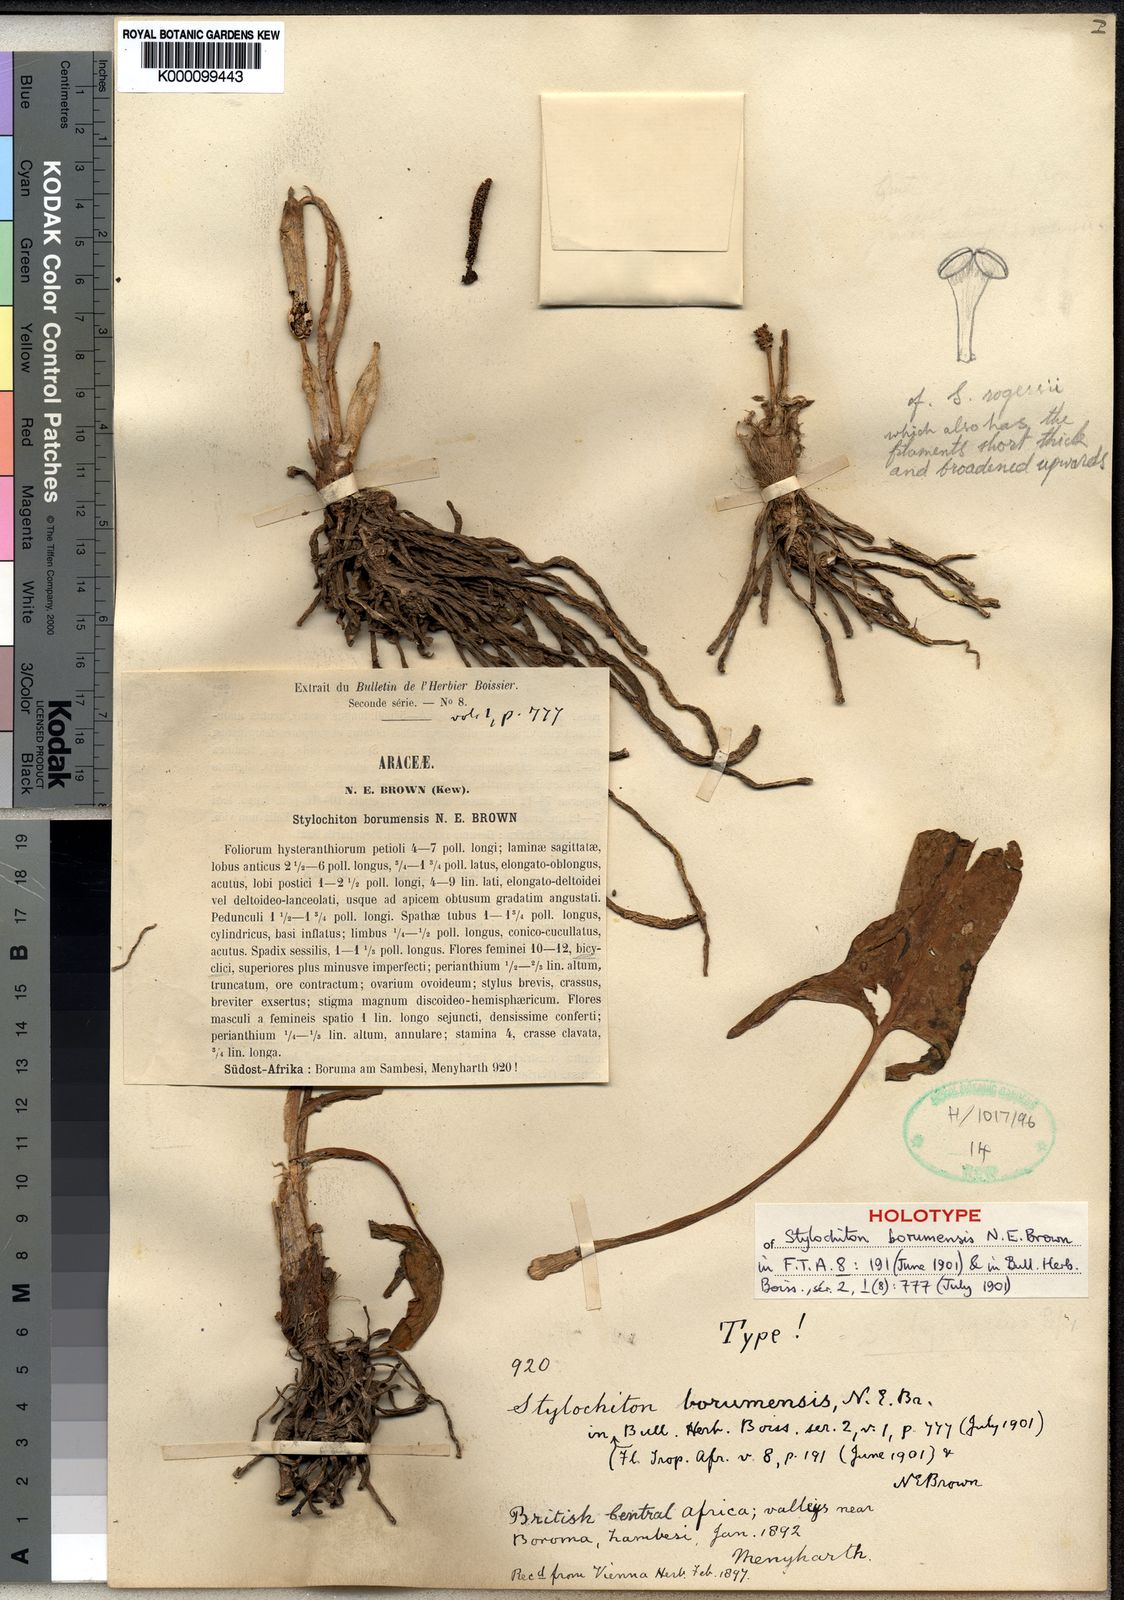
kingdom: Plantae
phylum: Tracheophyta
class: Liliopsida
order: Alismatales
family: Araceae
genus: Stylochaeton
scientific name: Stylochaeton
